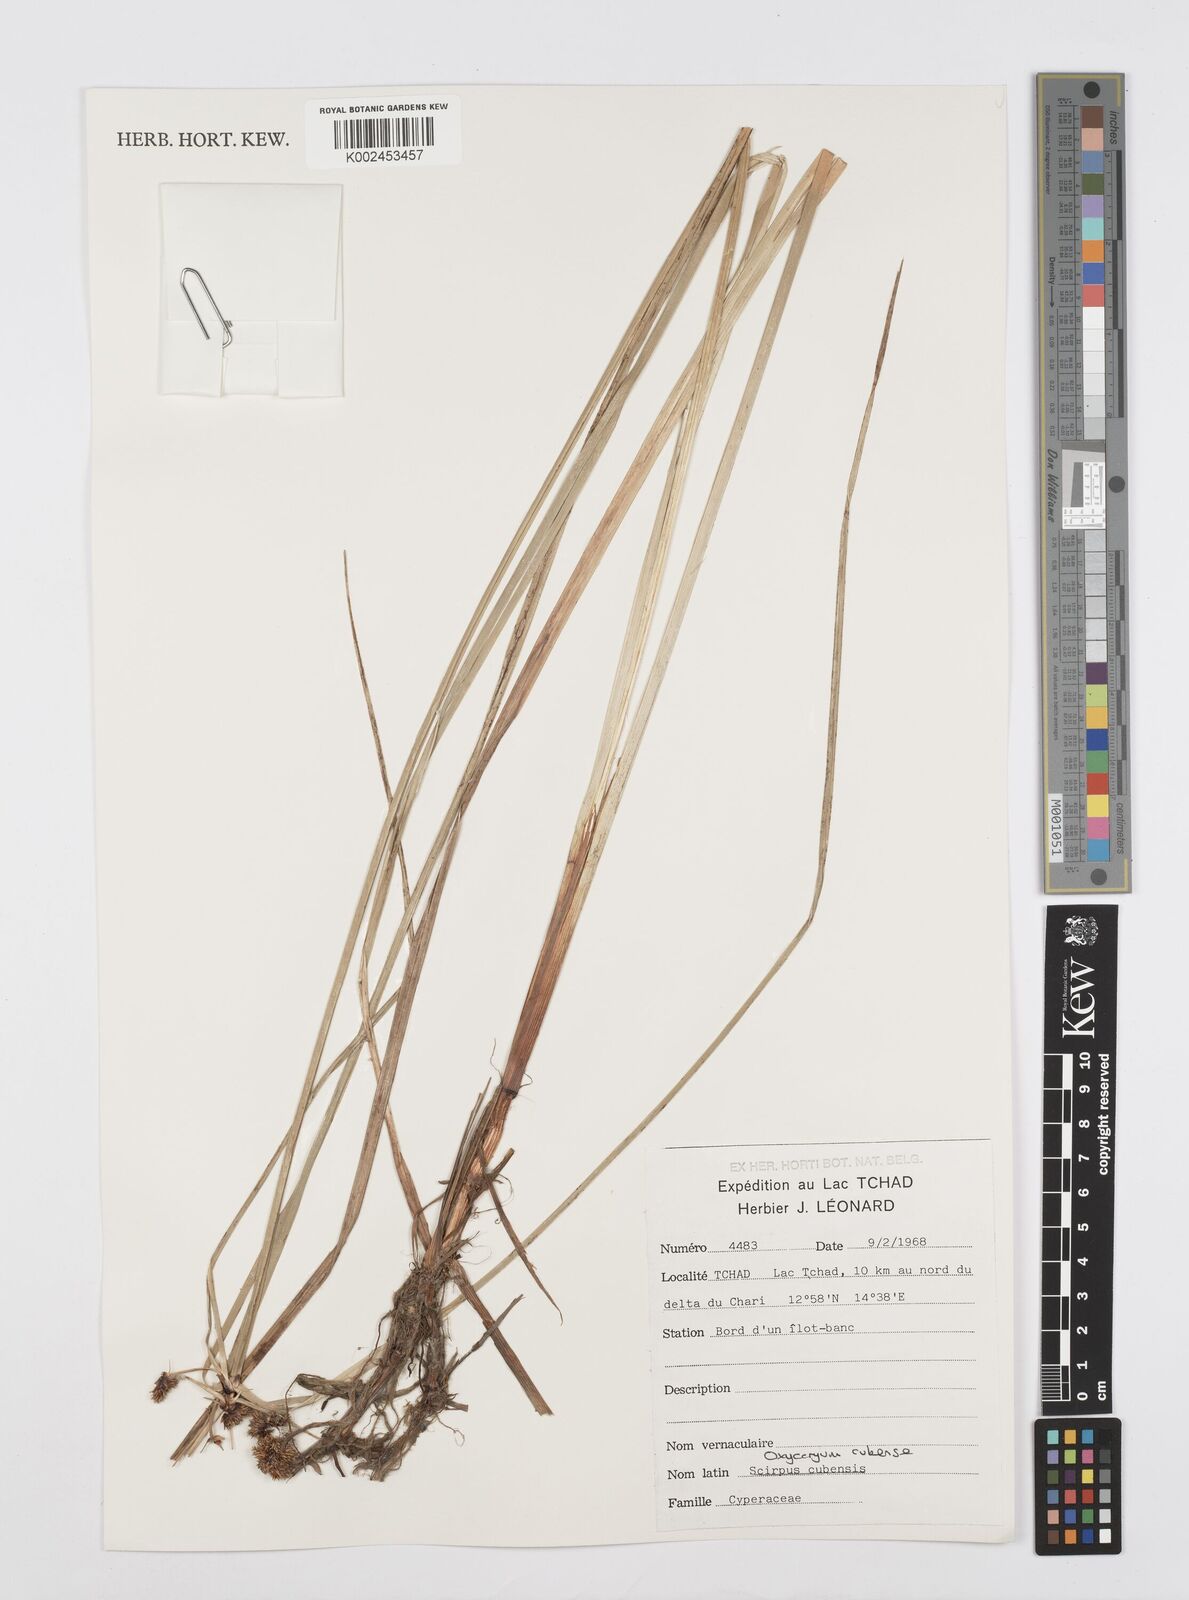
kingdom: Plantae
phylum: Tracheophyta
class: Liliopsida
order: Poales
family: Cyperaceae
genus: Cyperus
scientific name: Cyperus elegans
